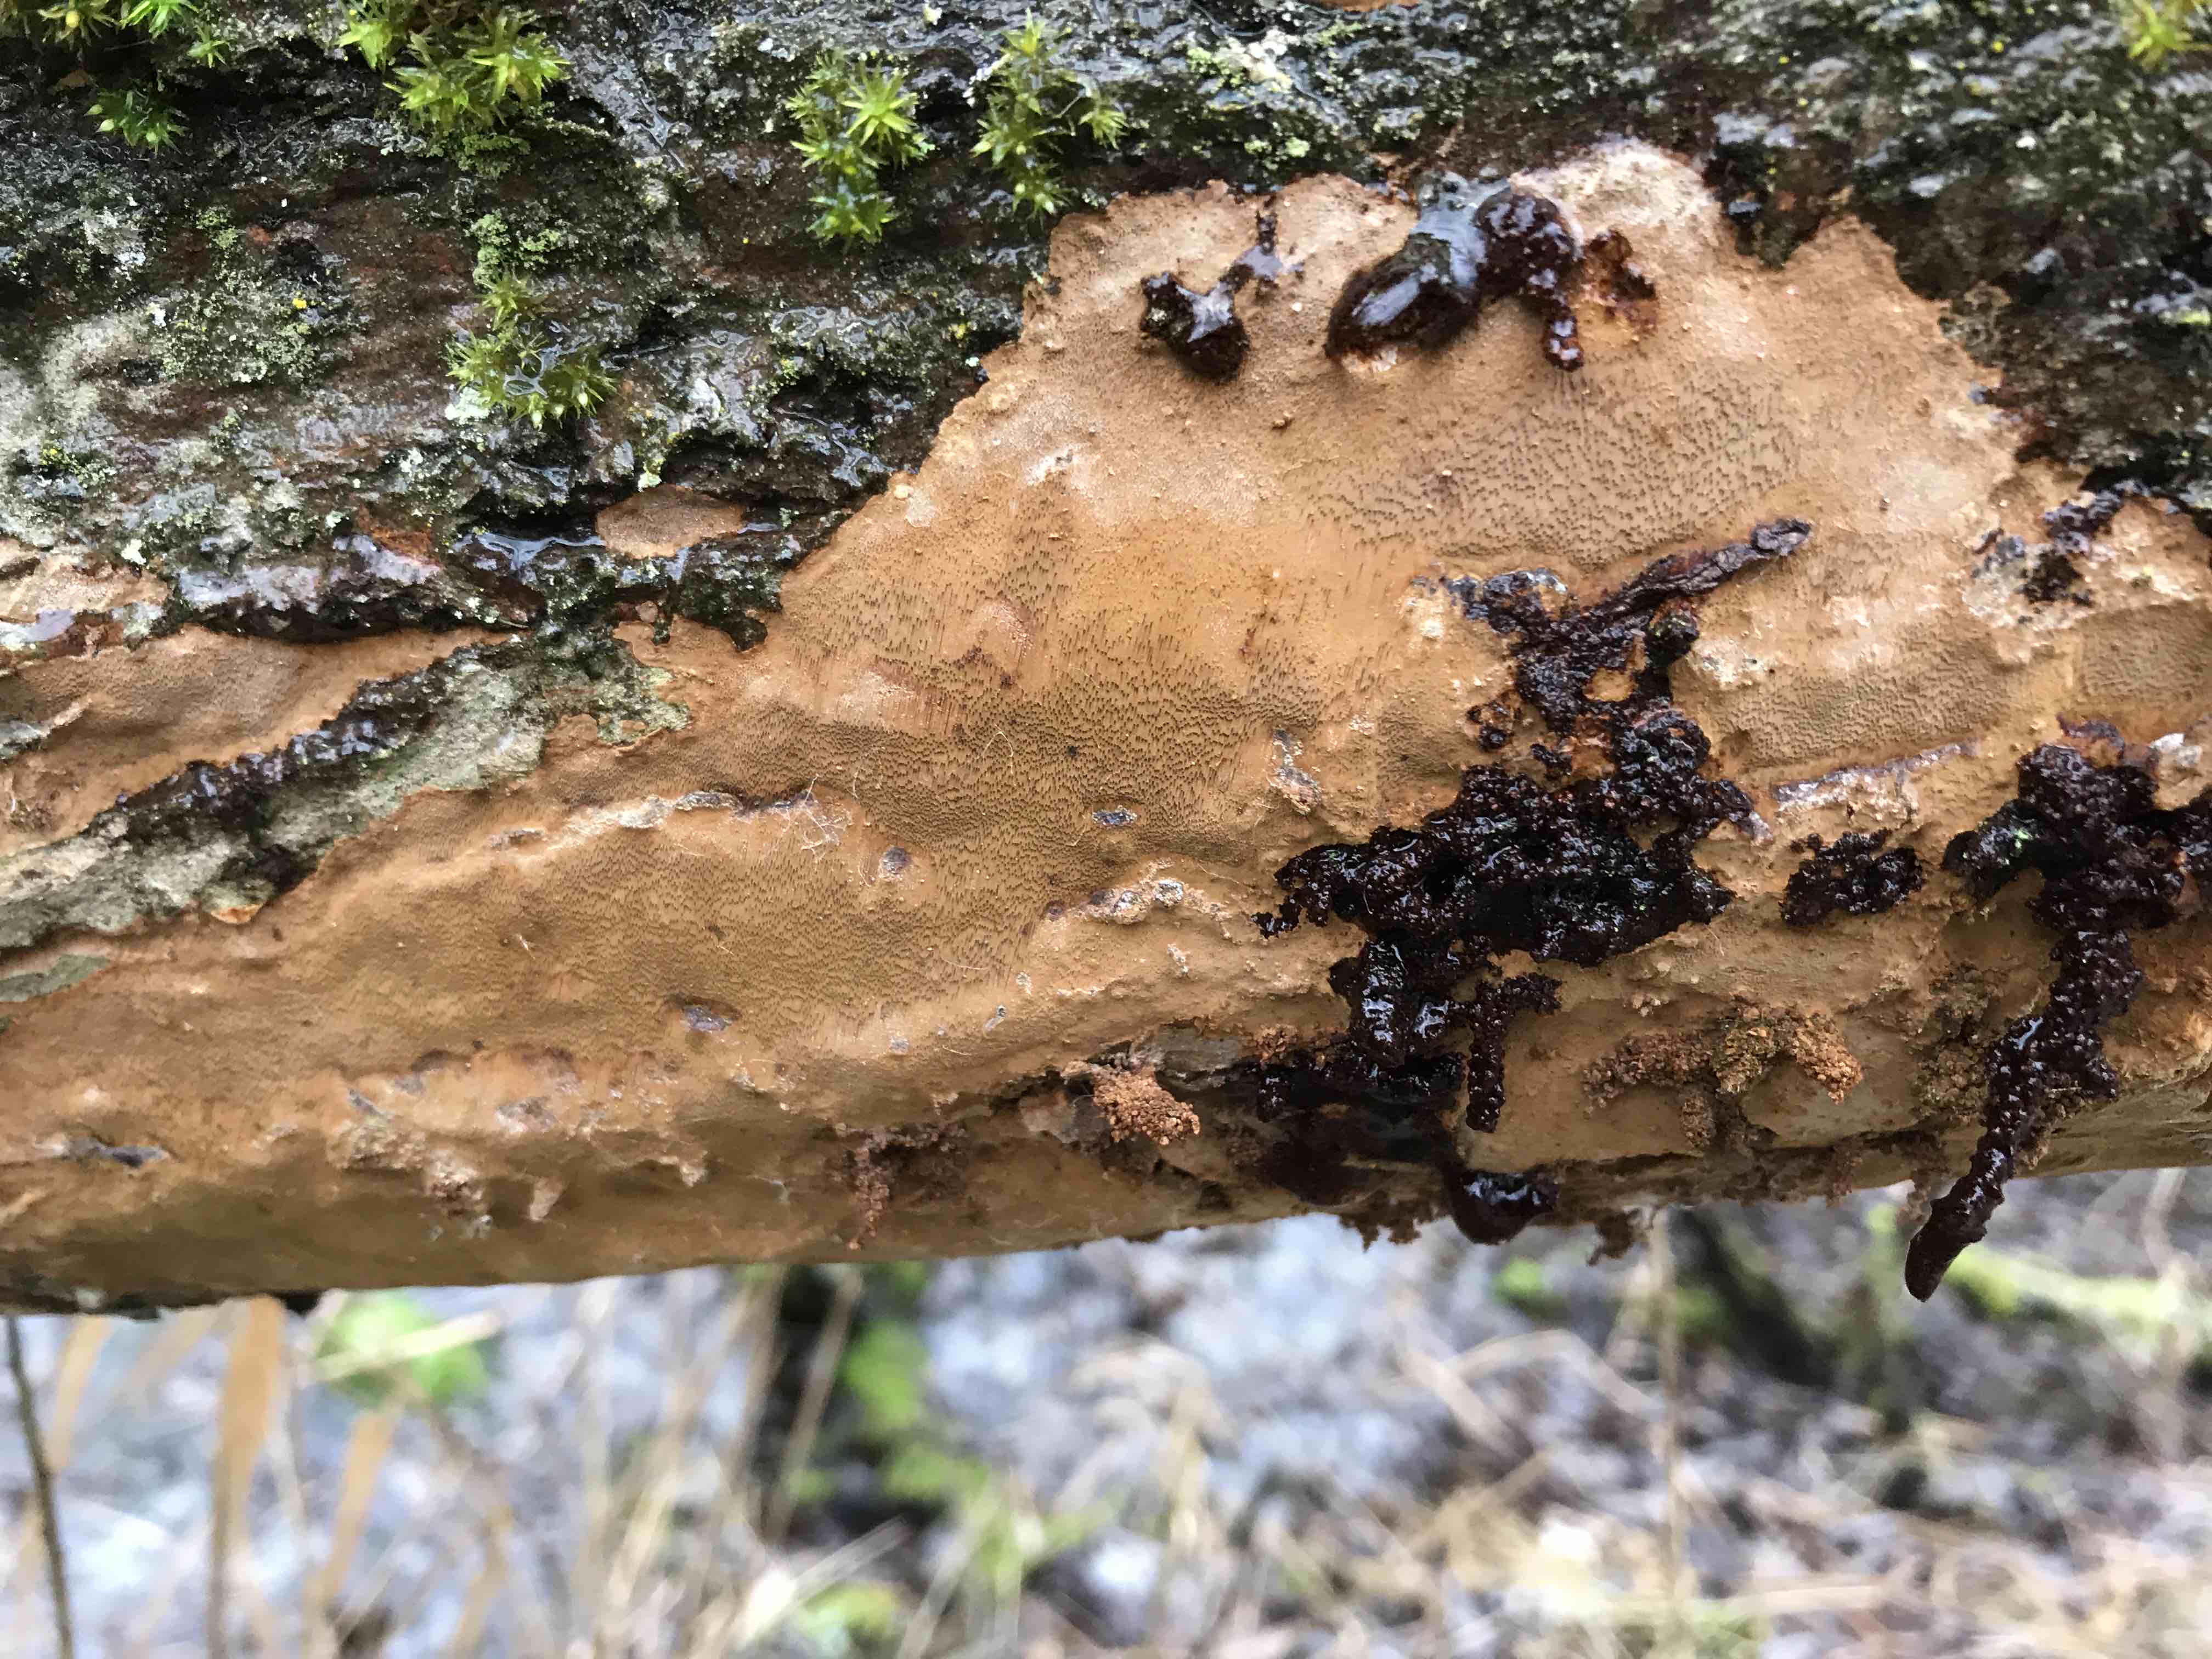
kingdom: Fungi
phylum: Basidiomycota
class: Agaricomycetes
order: Hymenochaetales
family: Hymenochaetaceae
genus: Fomitiporia
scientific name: Fomitiporia punctata
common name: pude-ildporesvamp
